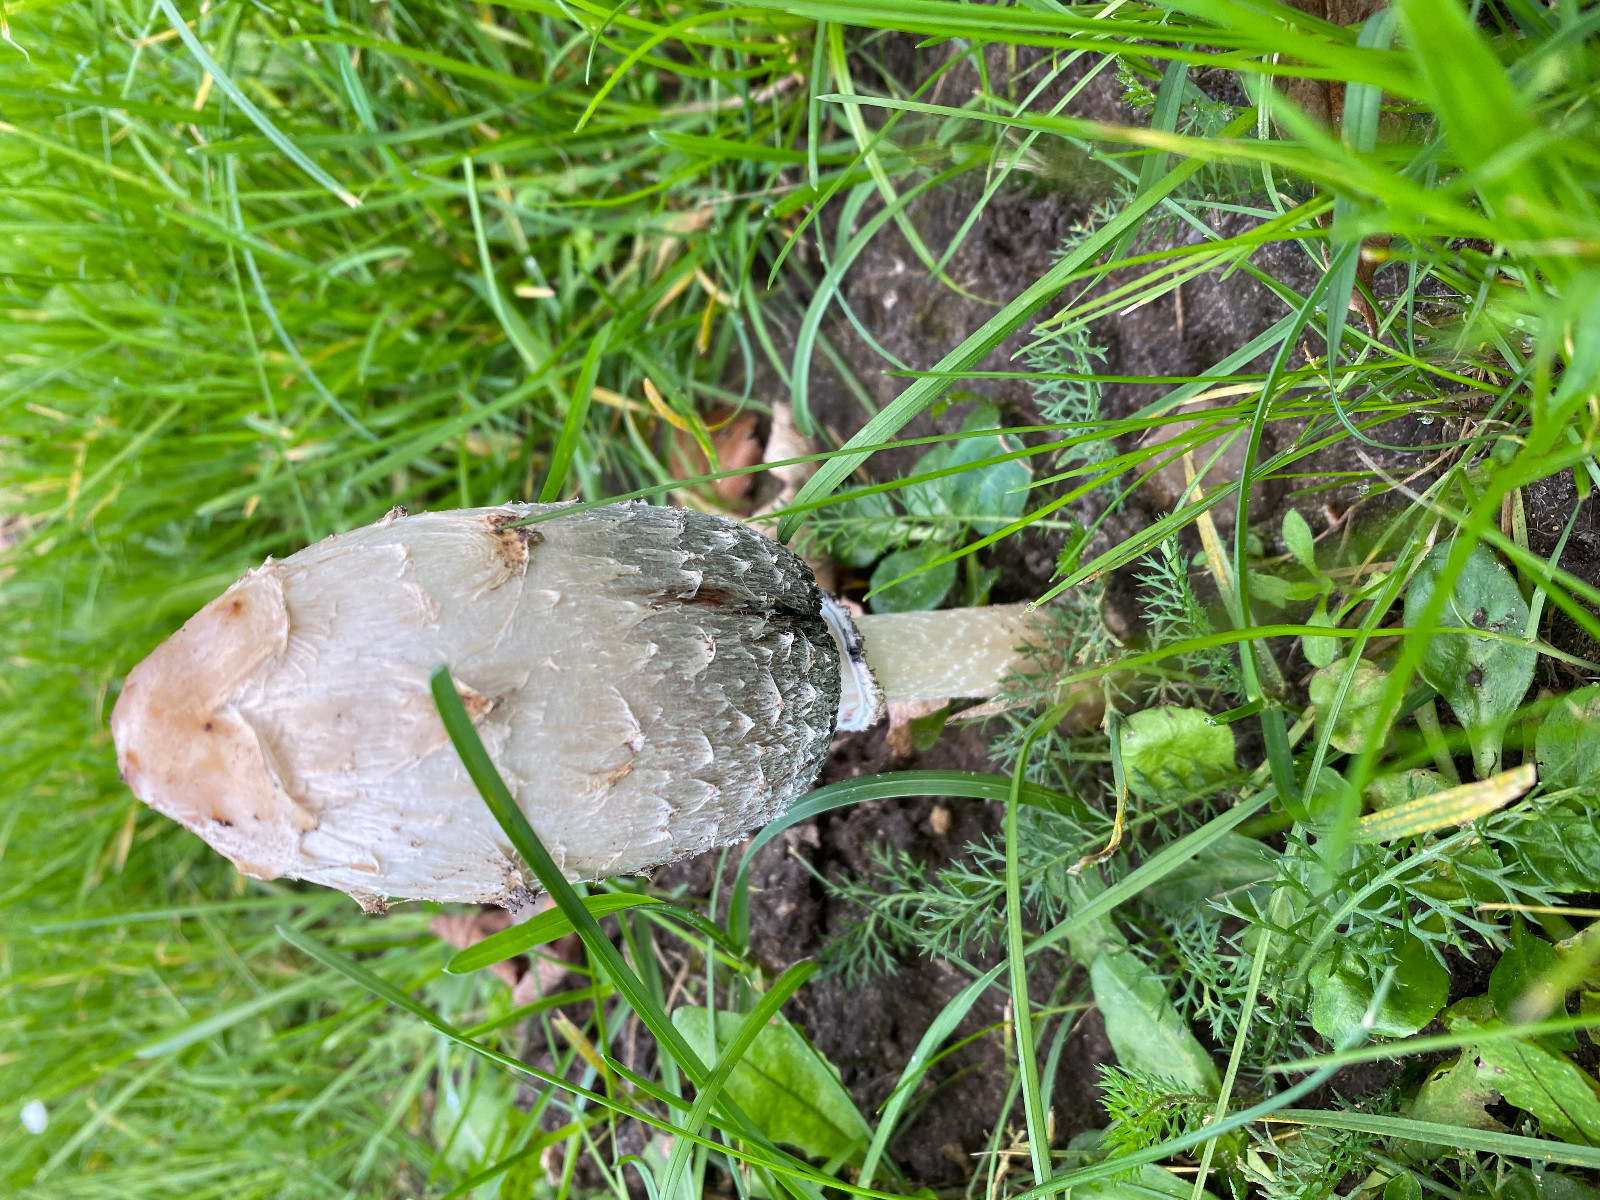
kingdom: Fungi
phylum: Basidiomycota
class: Agaricomycetes
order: Agaricales
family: Agaricaceae
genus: Coprinus
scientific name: Coprinus comatus
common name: stor parykhat
